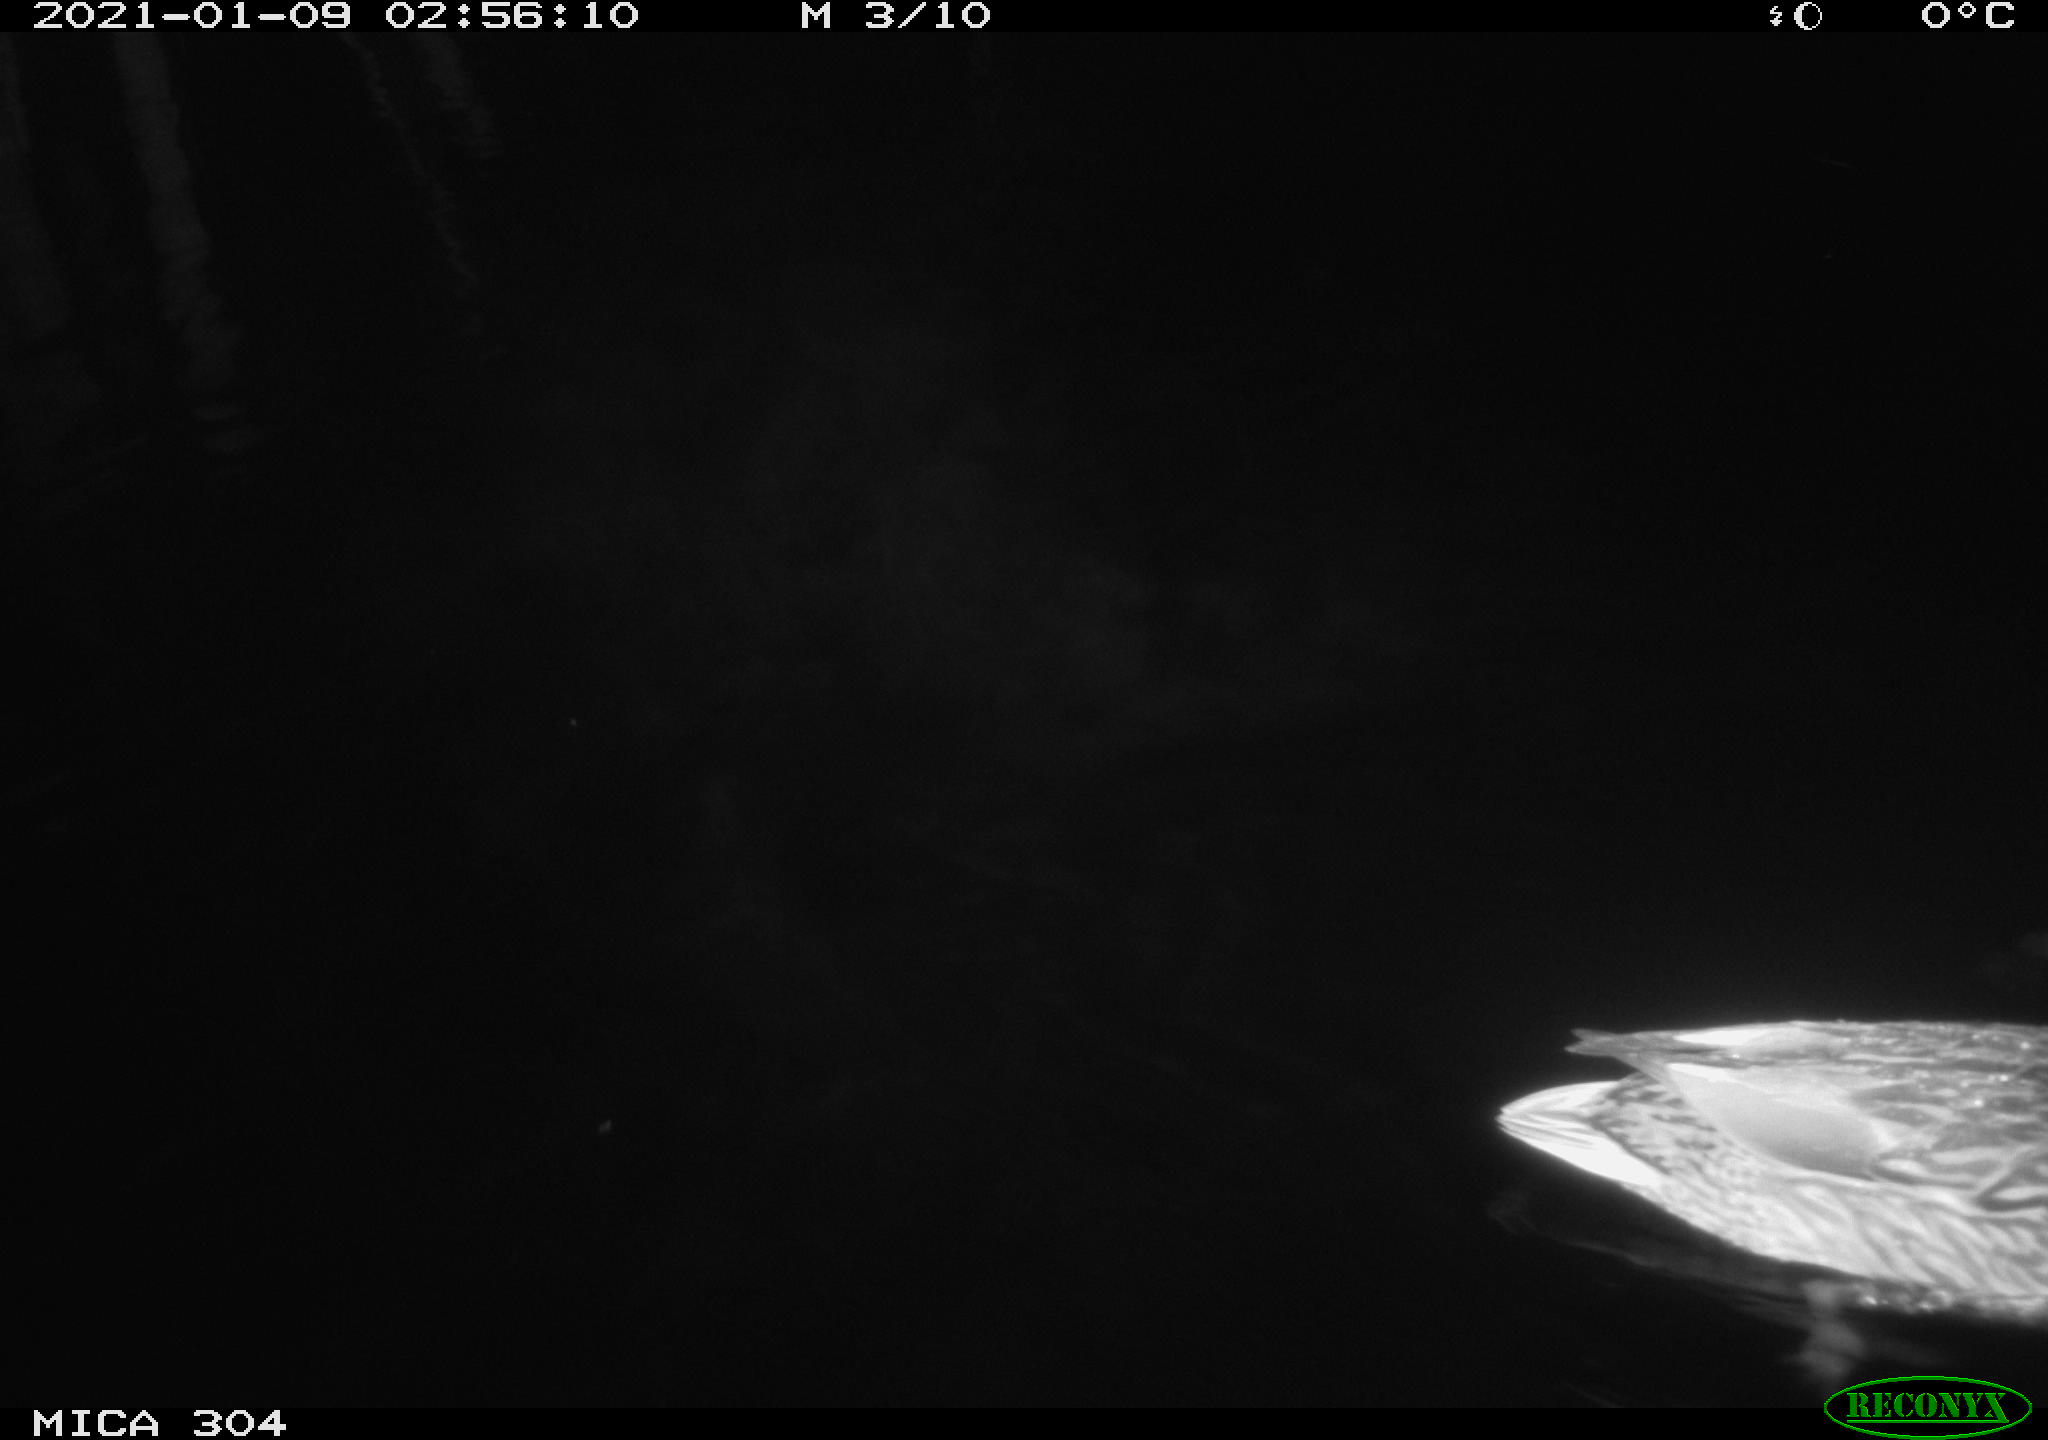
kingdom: Animalia
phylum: Chordata
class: Aves
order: Anseriformes
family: Anatidae
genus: Anas
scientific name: Anas platyrhynchos
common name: Mallard
